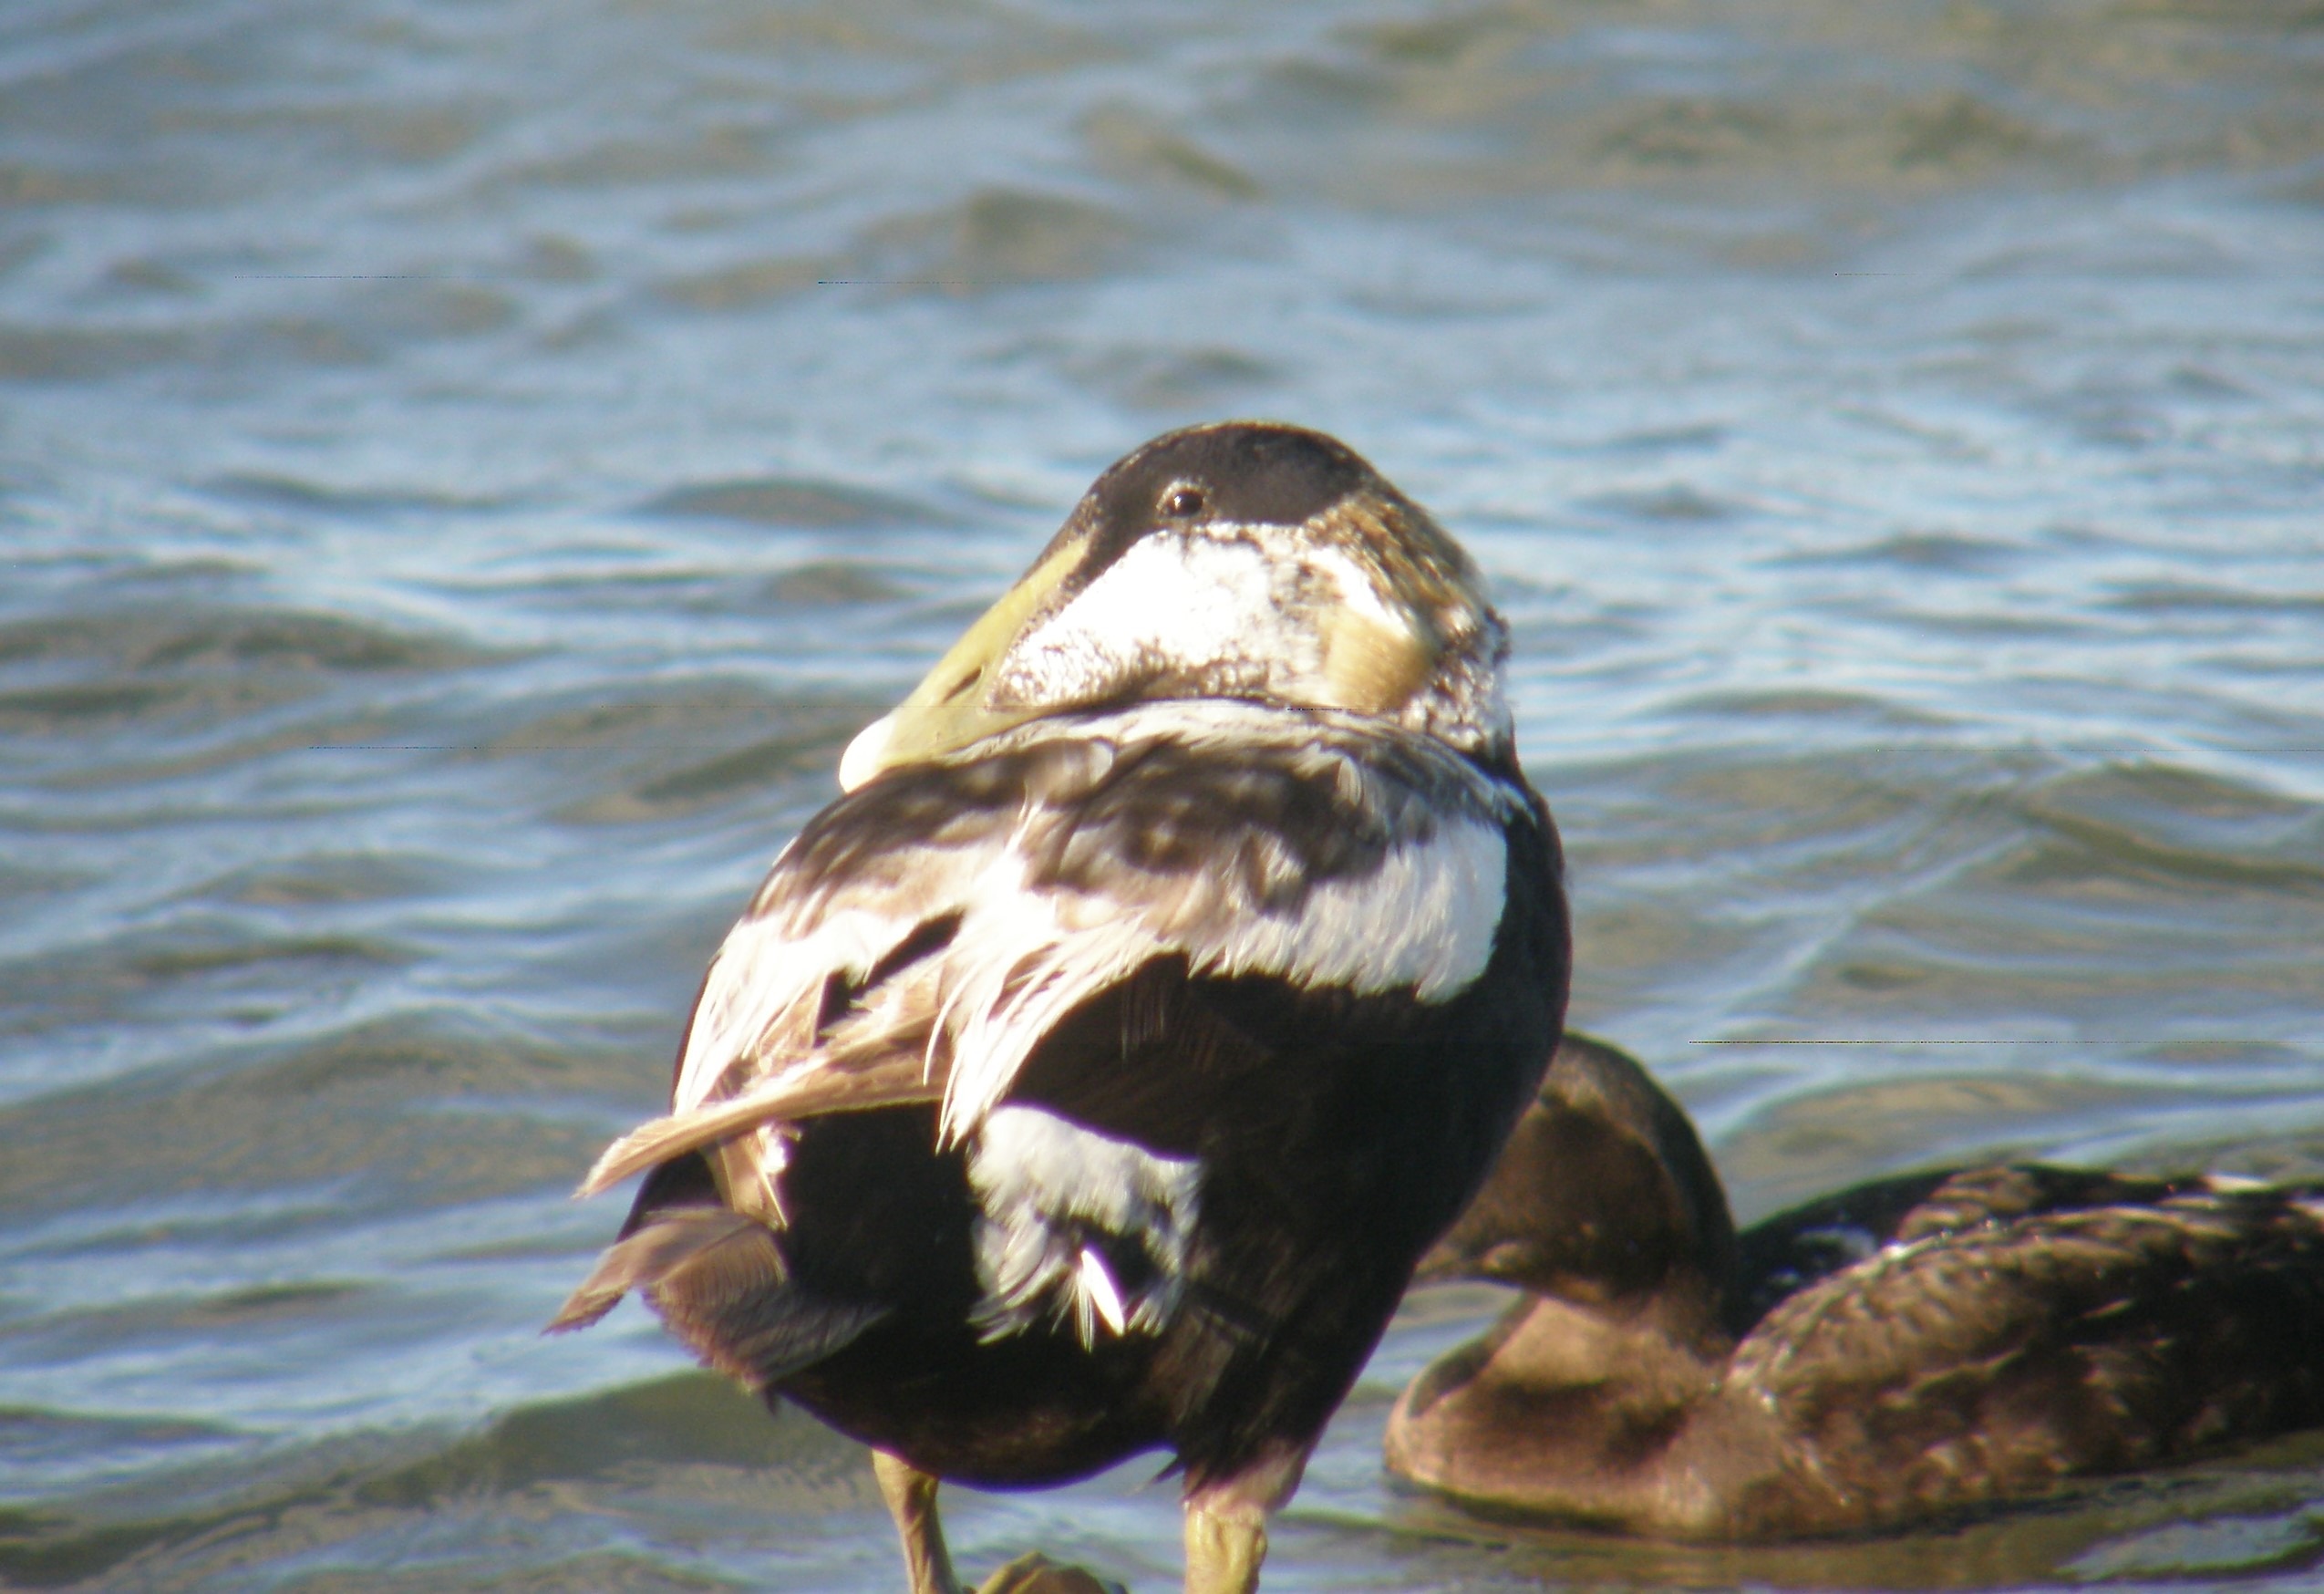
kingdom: Animalia
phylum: Chordata
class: Aves
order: Anseriformes
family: Anatidae
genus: Somateria
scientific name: Somateria mollissima
